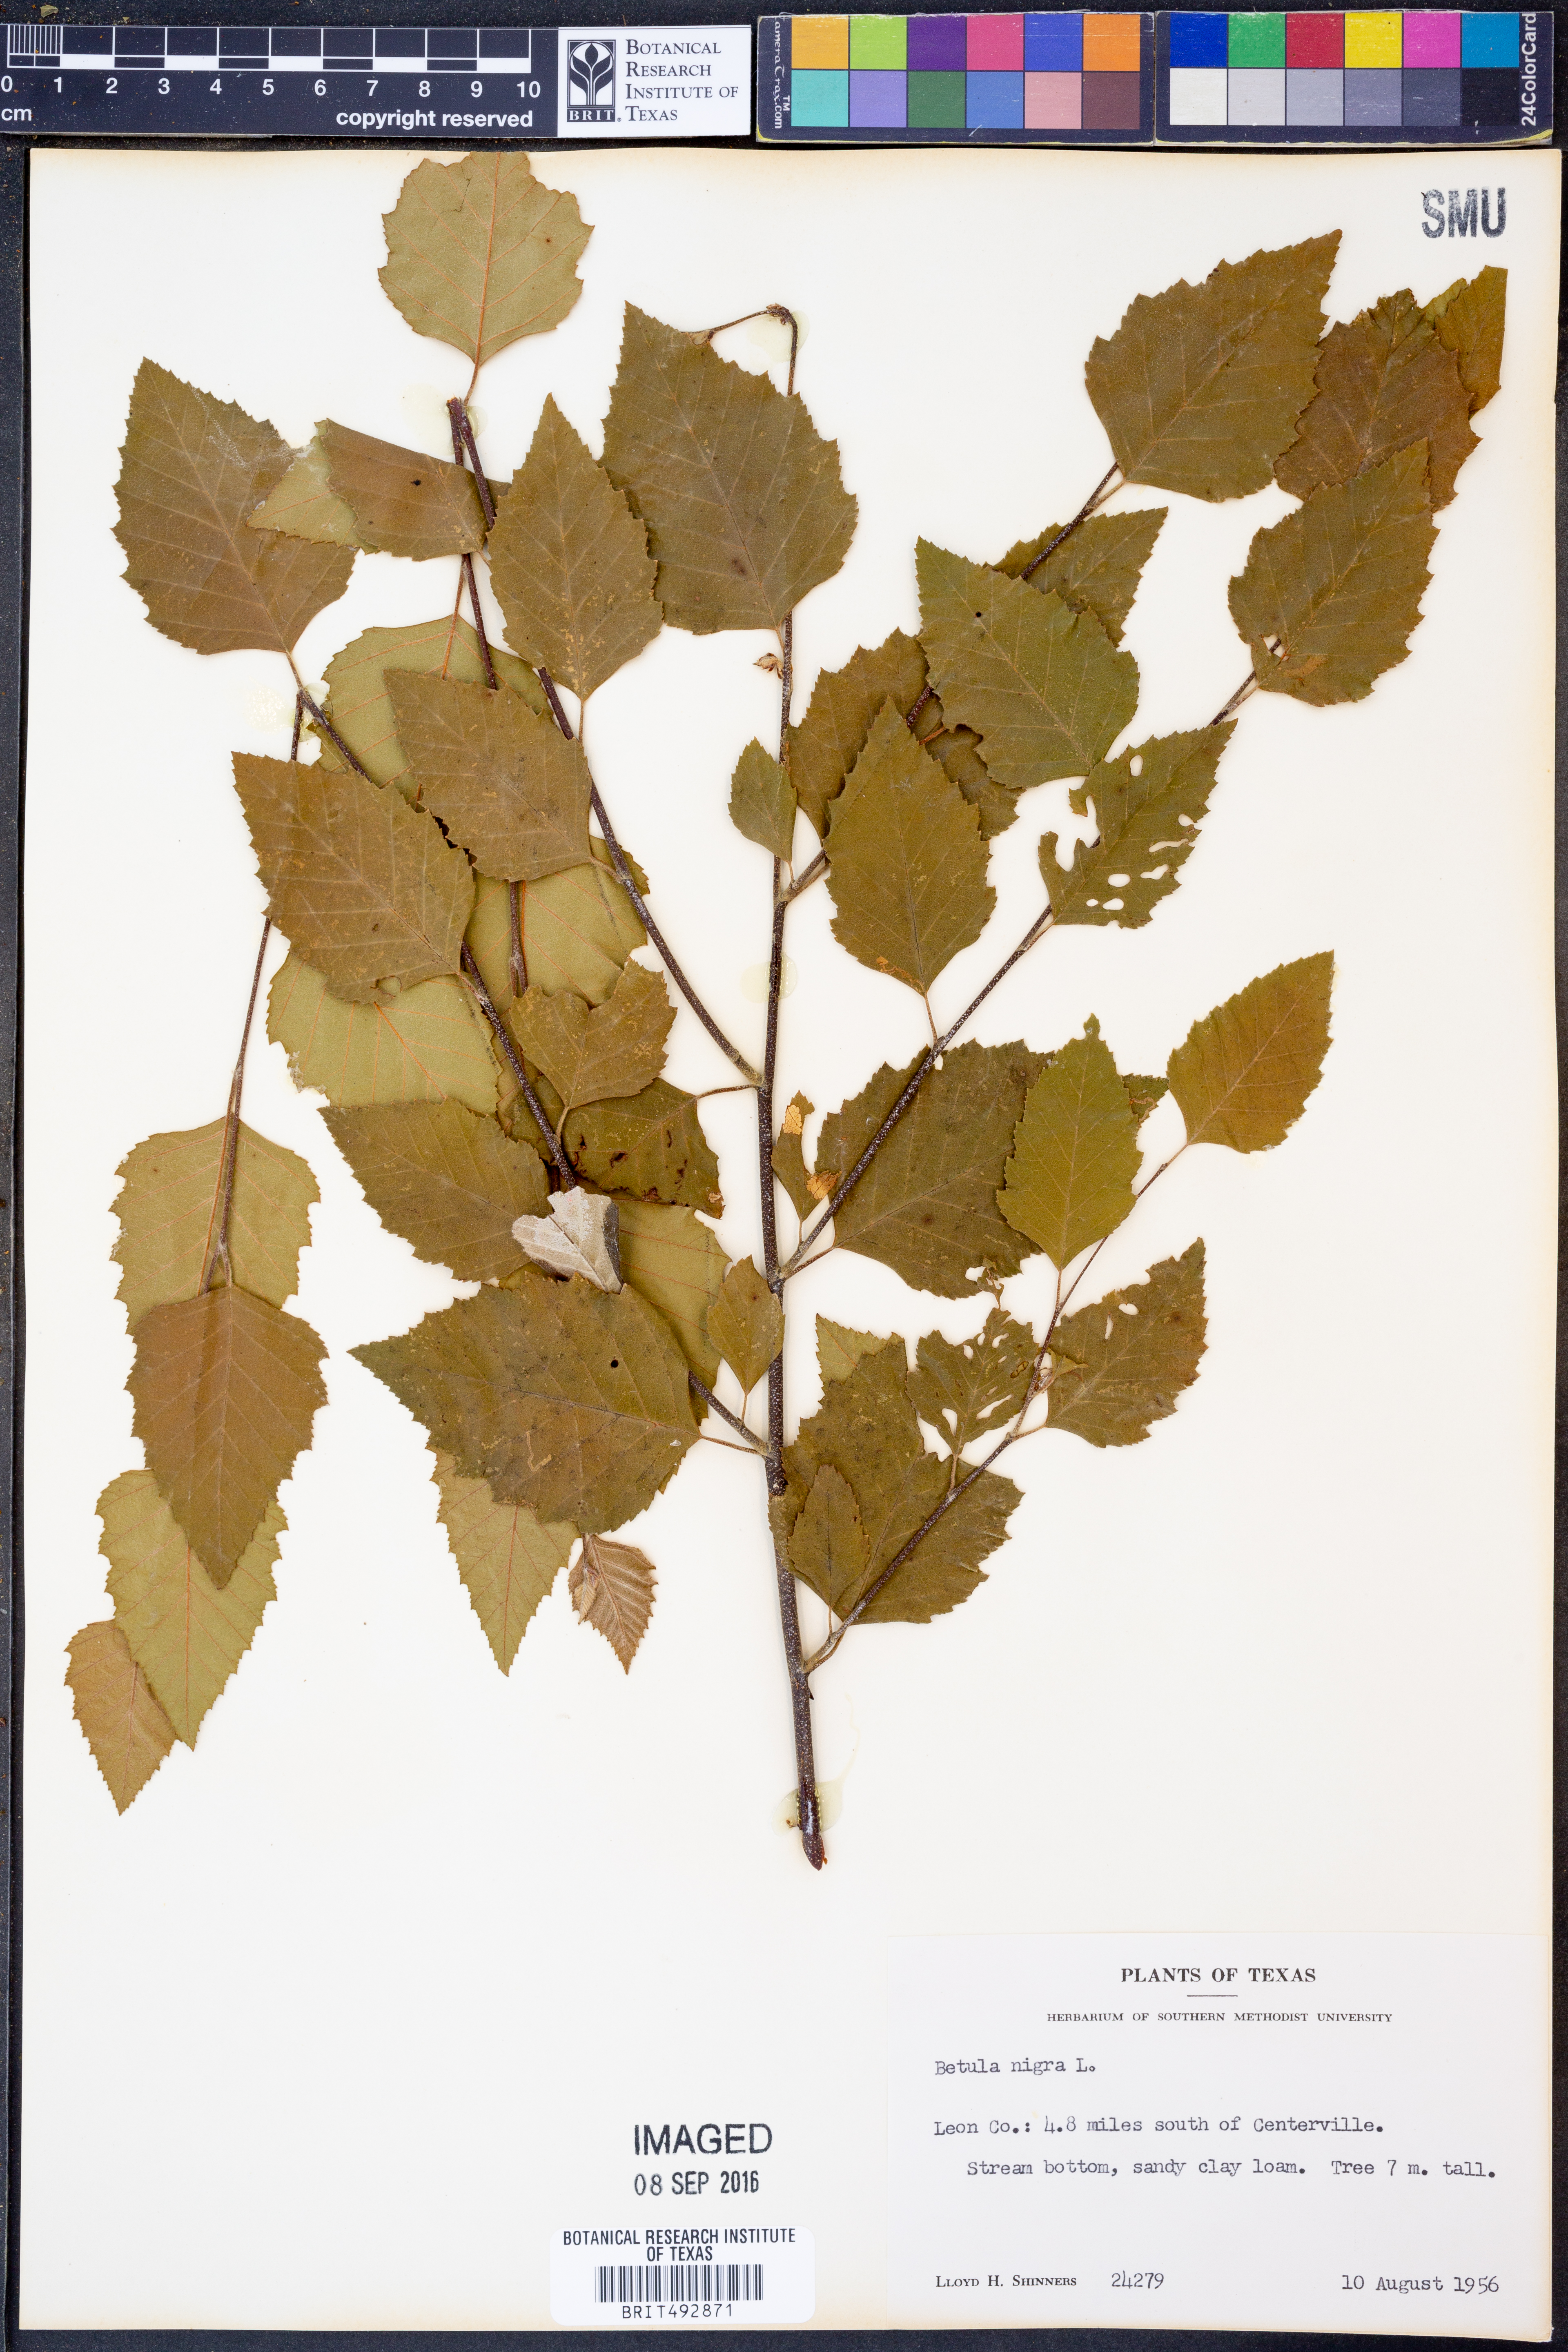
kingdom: Plantae
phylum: Tracheophyta
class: Magnoliopsida
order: Fagales
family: Betulaceae
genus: Betula
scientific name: Betula nigra
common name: Black birch
